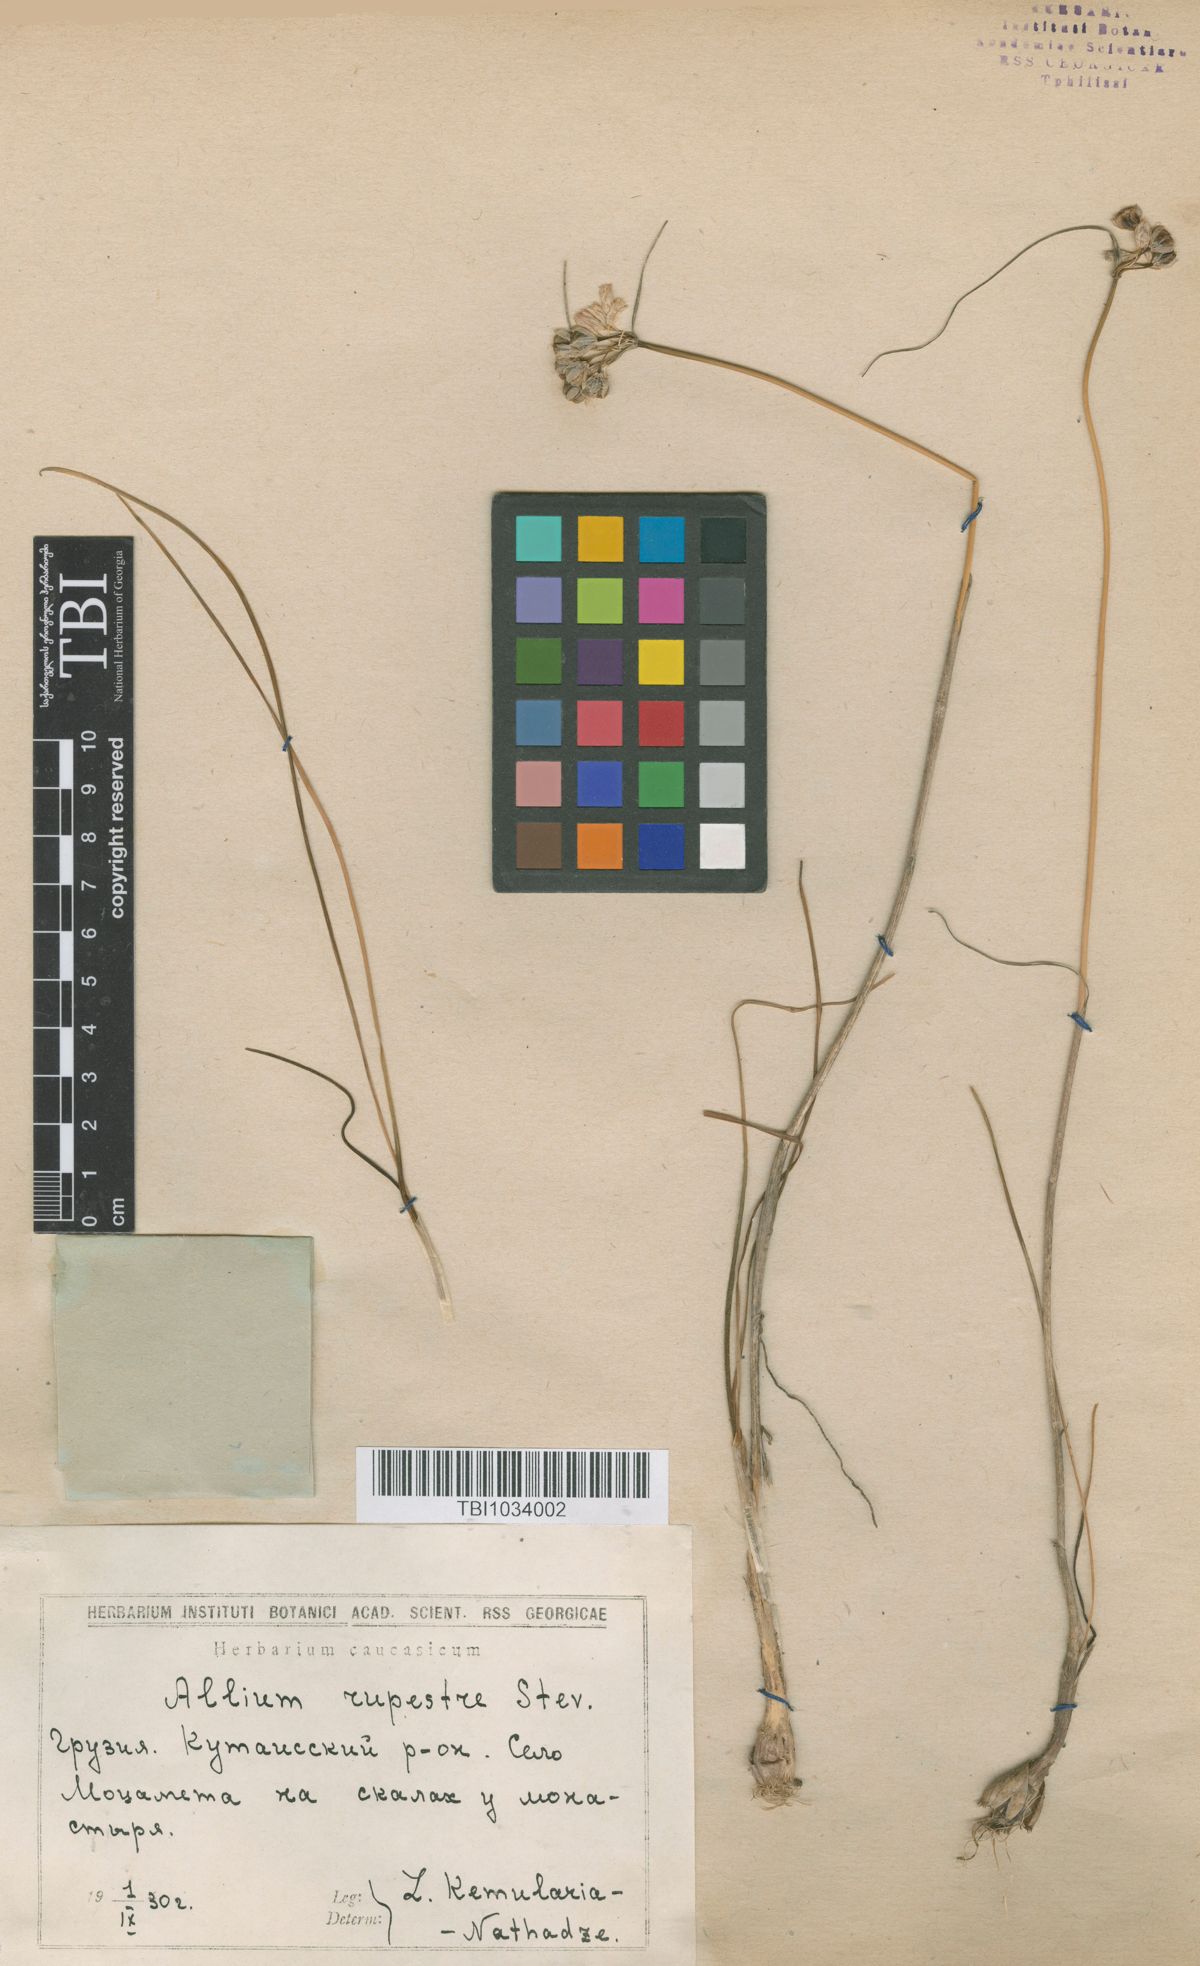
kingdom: Plantae
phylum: Tracheophyta
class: Liliopsida
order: Asparagales
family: Amaryllidaceae
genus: Allium
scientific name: Allium rupestre
